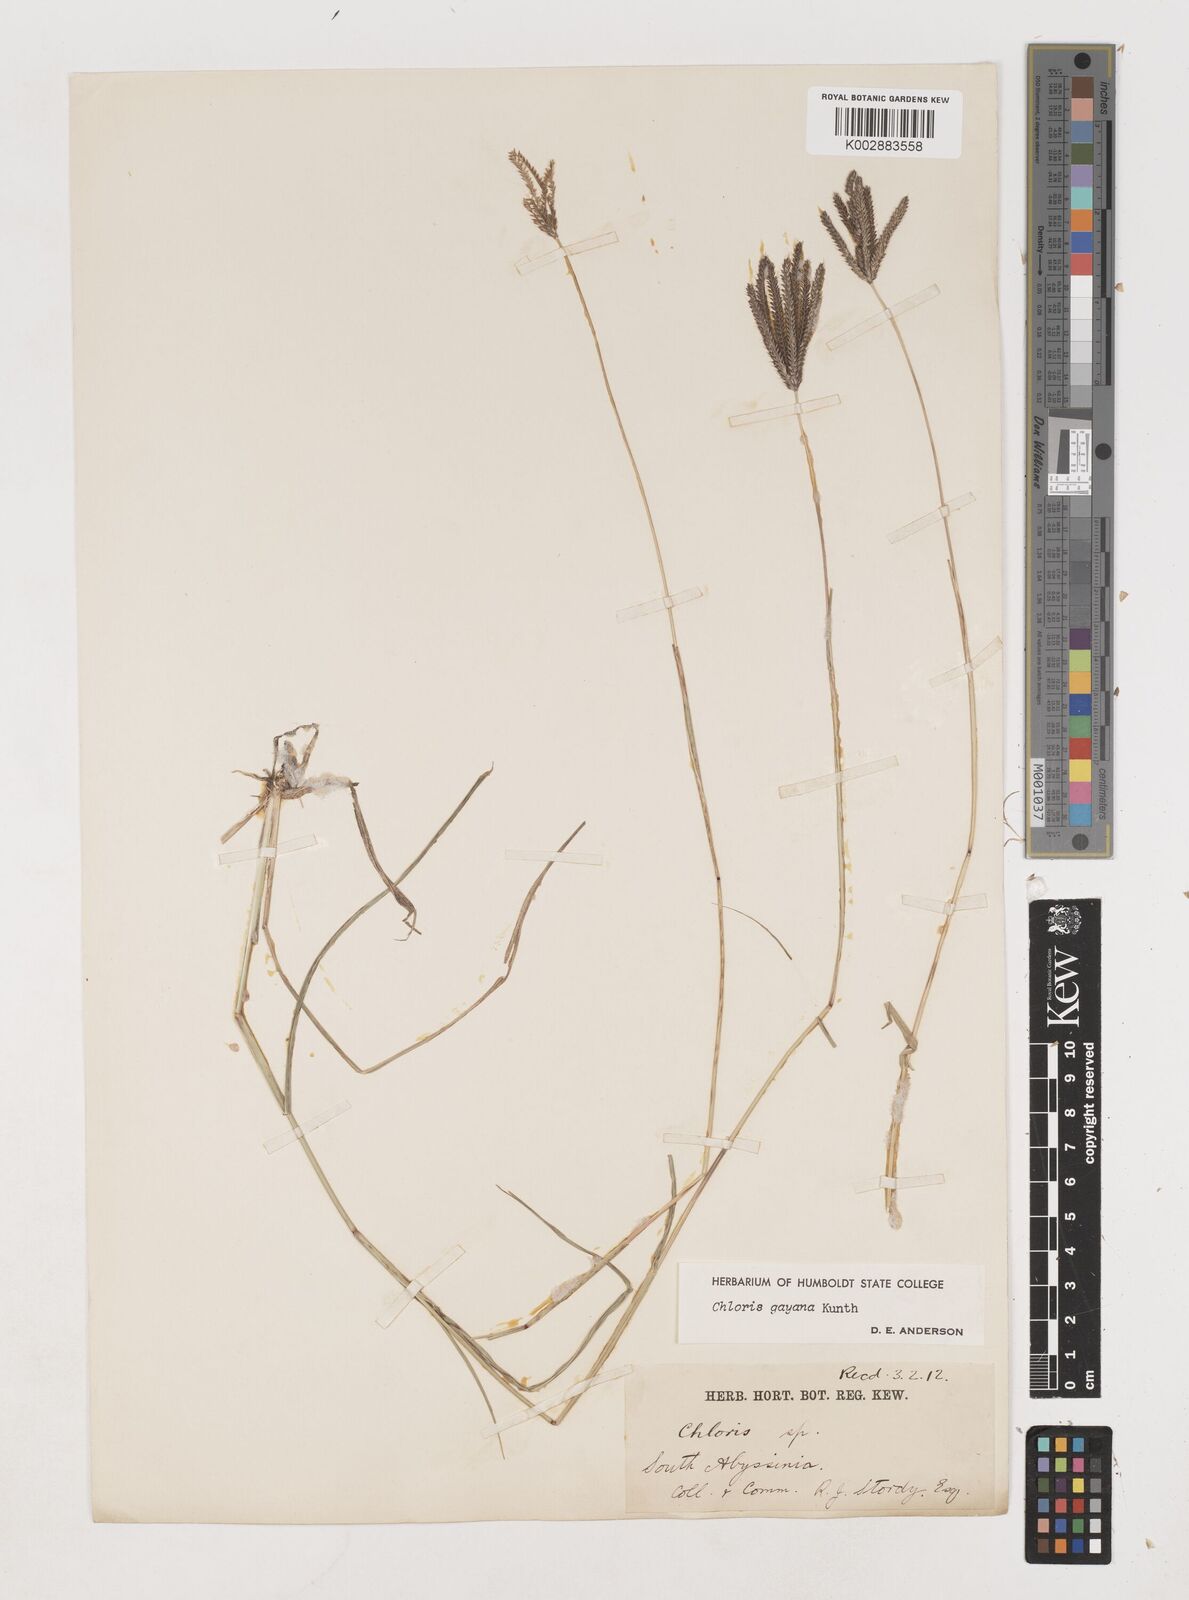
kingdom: Plantae
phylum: Tracheophyta
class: Liliopsida
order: Poales
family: Poaceae
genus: Chloris
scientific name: Chloris gayana
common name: Rhodes grass
